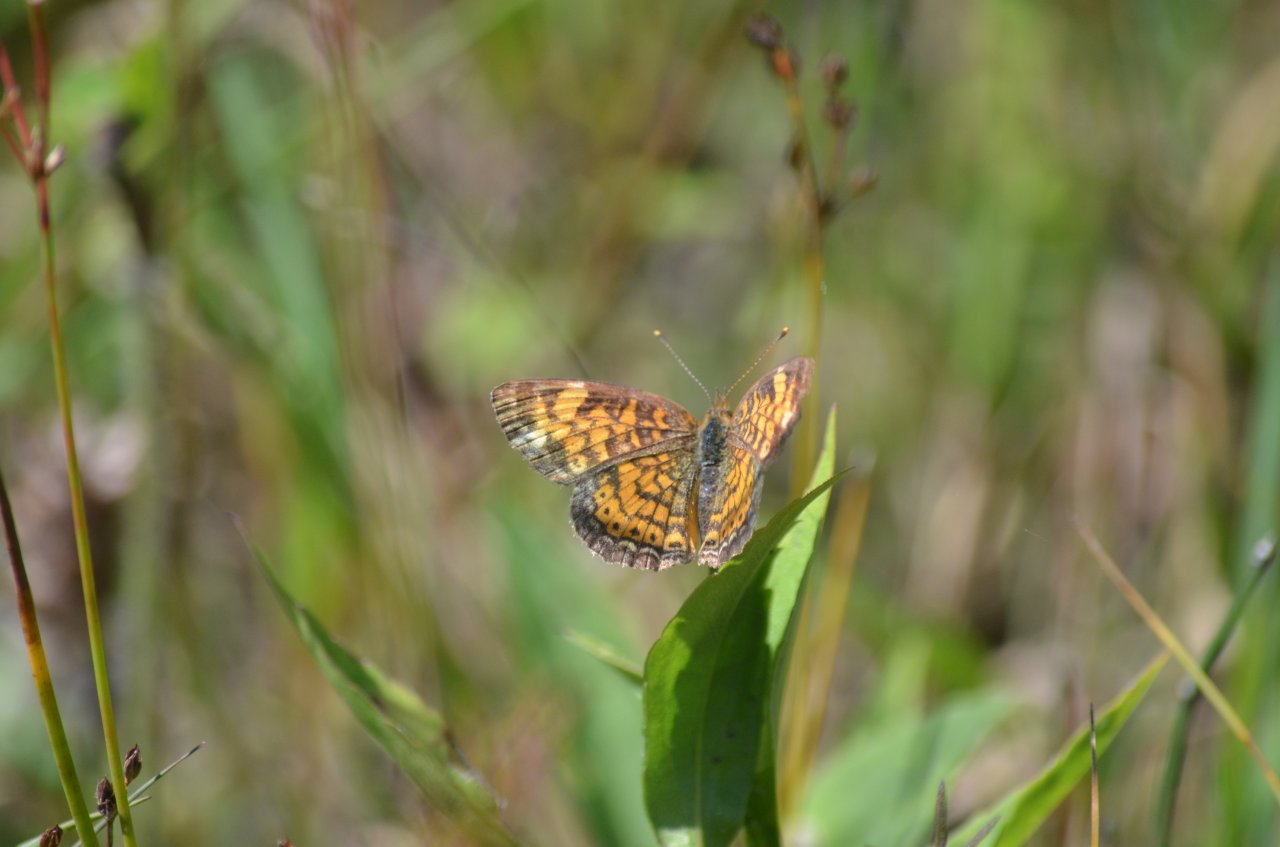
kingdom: Animalia
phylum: Arthropoda
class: Insecta
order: Lepidoptera
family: Nymphalidae
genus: Phyciodes
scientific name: Phyciodes tharos
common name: Pearl Crescent
